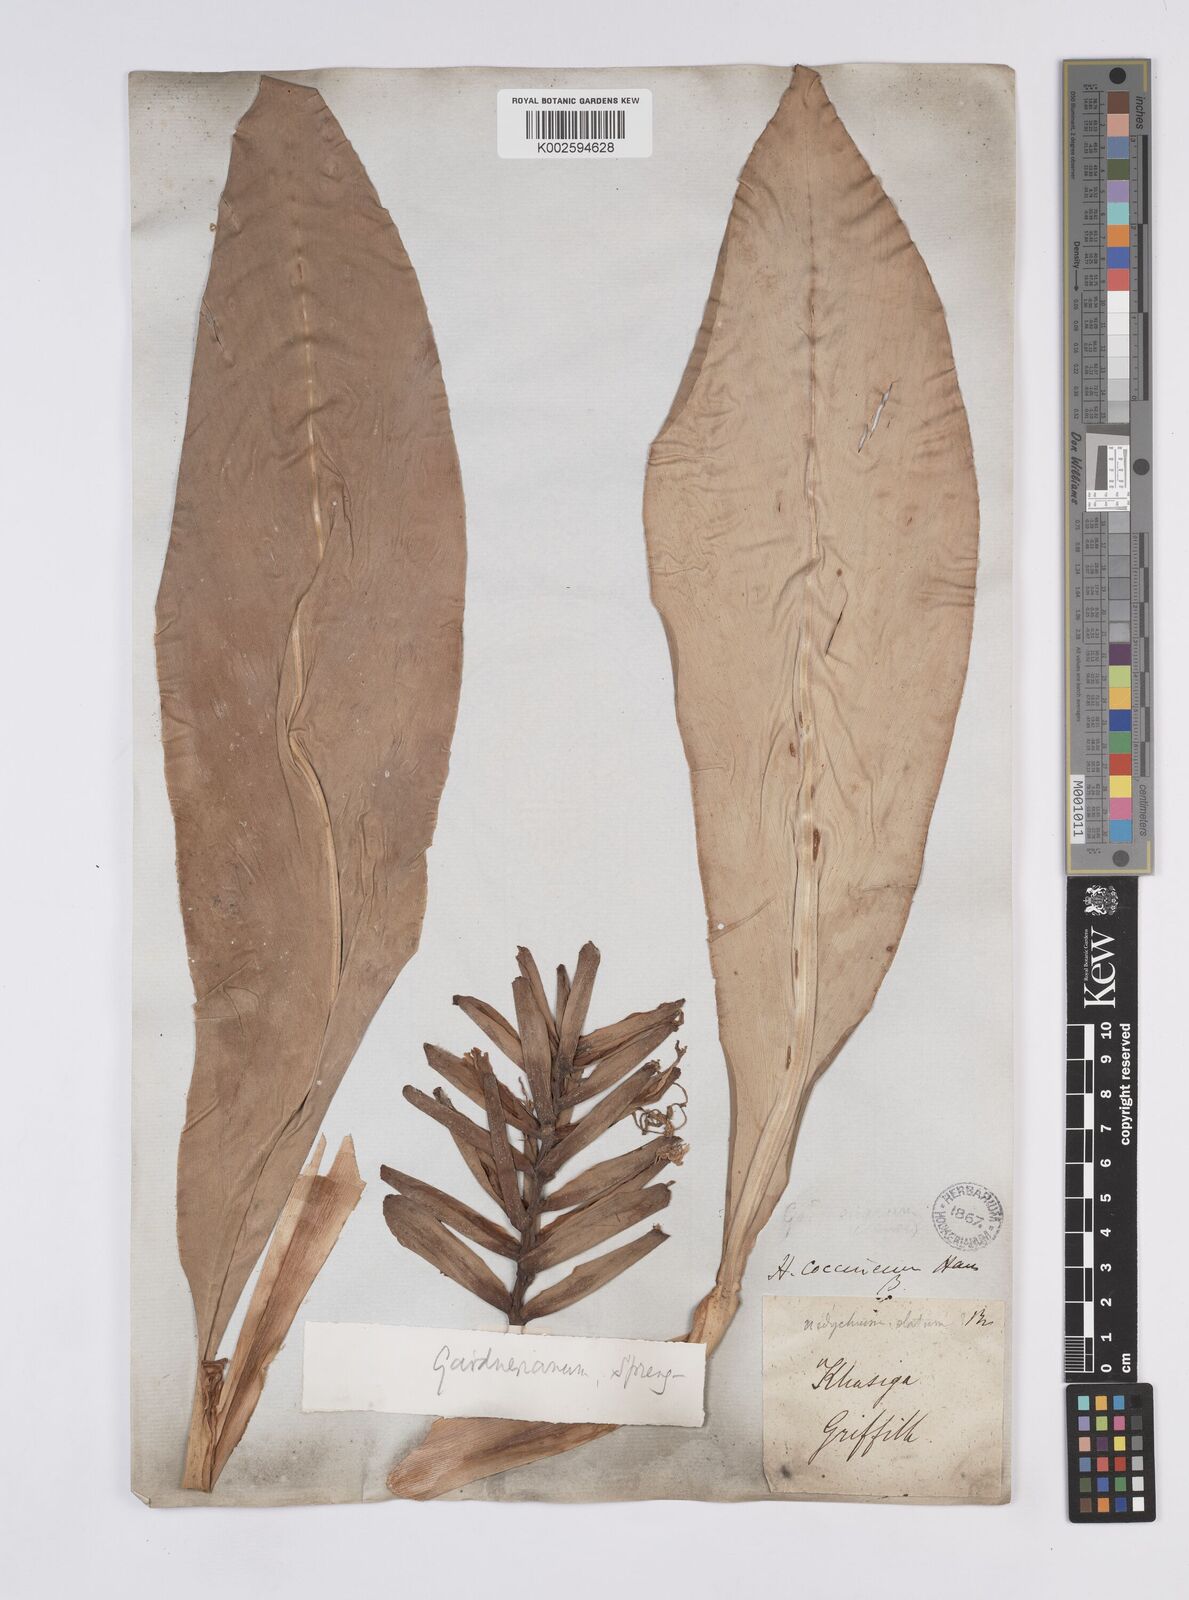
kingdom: Plantae
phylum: Tracheophyta
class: Liliopsida
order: Zingiberales
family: Zingiberaceae
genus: Hedychium
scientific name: Hedychium gardnerianum
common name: Himalayan ginger
